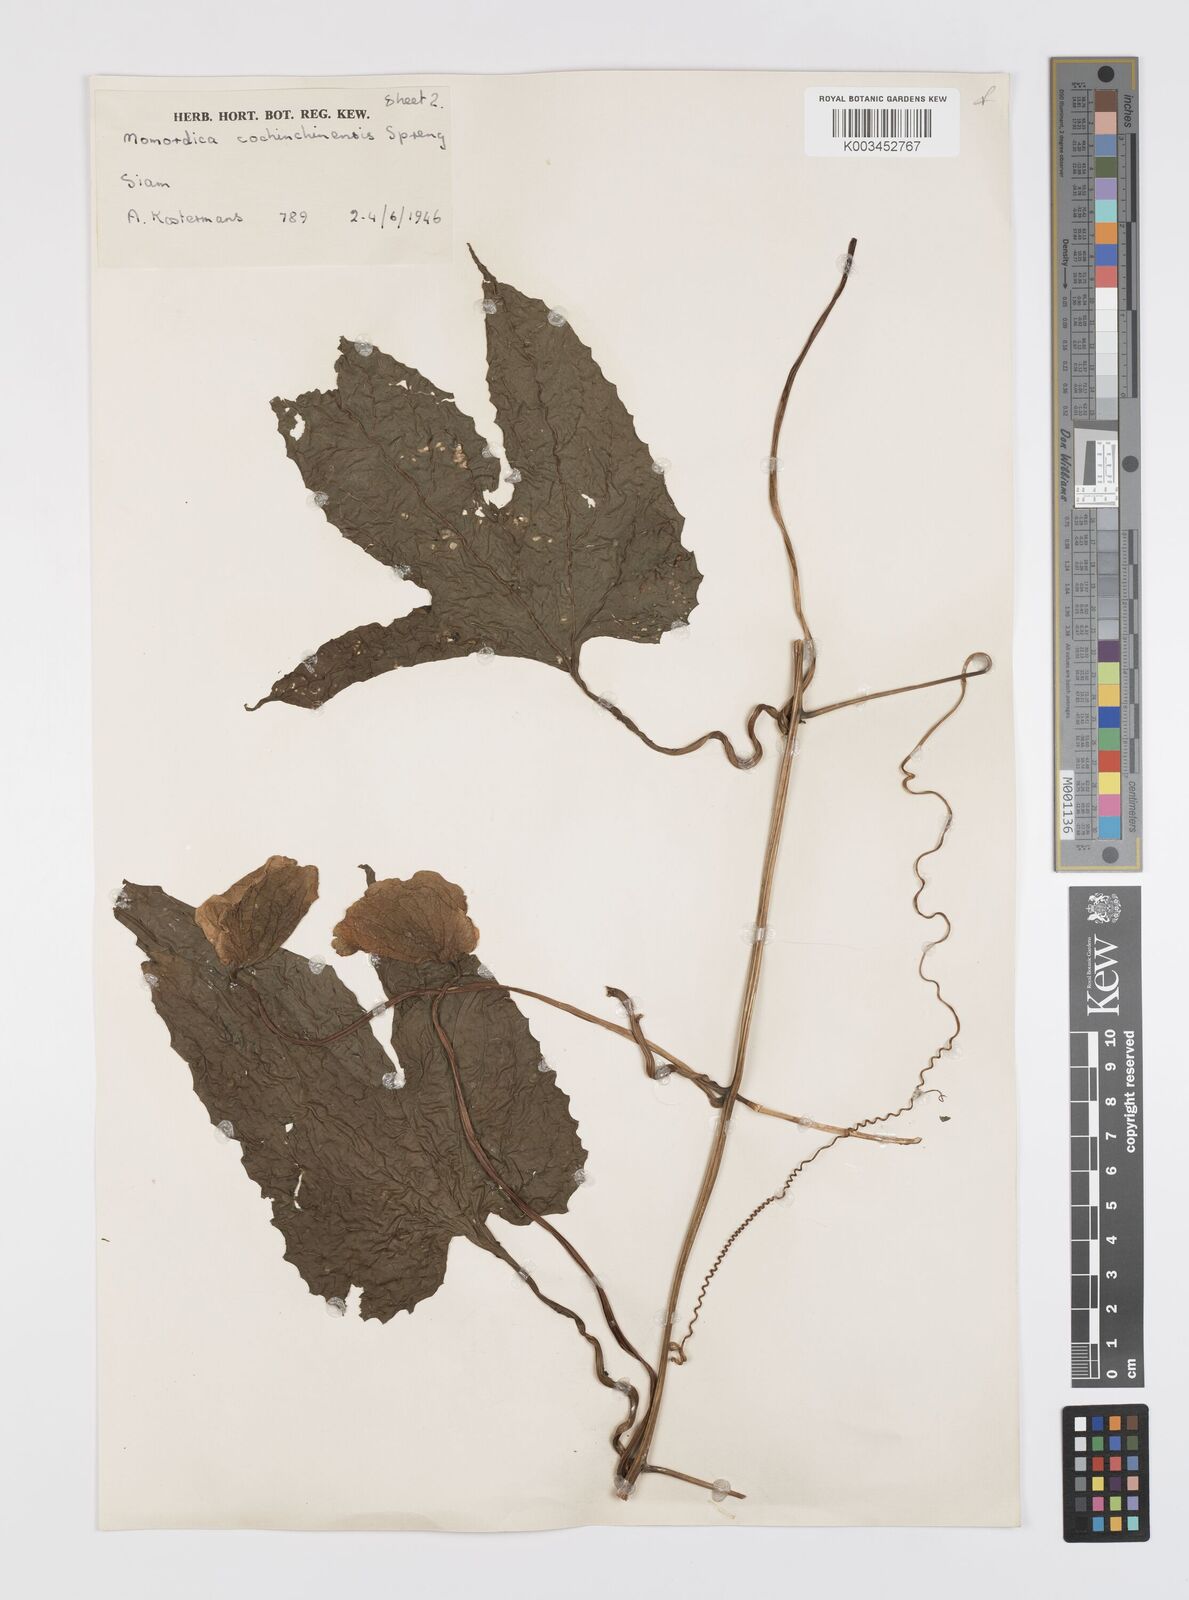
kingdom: Plantae
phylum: Tracheophyta
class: Magnoliopsida
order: Cucurbitales
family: Cucurbitaceae
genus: Momordica
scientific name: Momordica cochinchinensis
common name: Chinese bitter-cucumber
